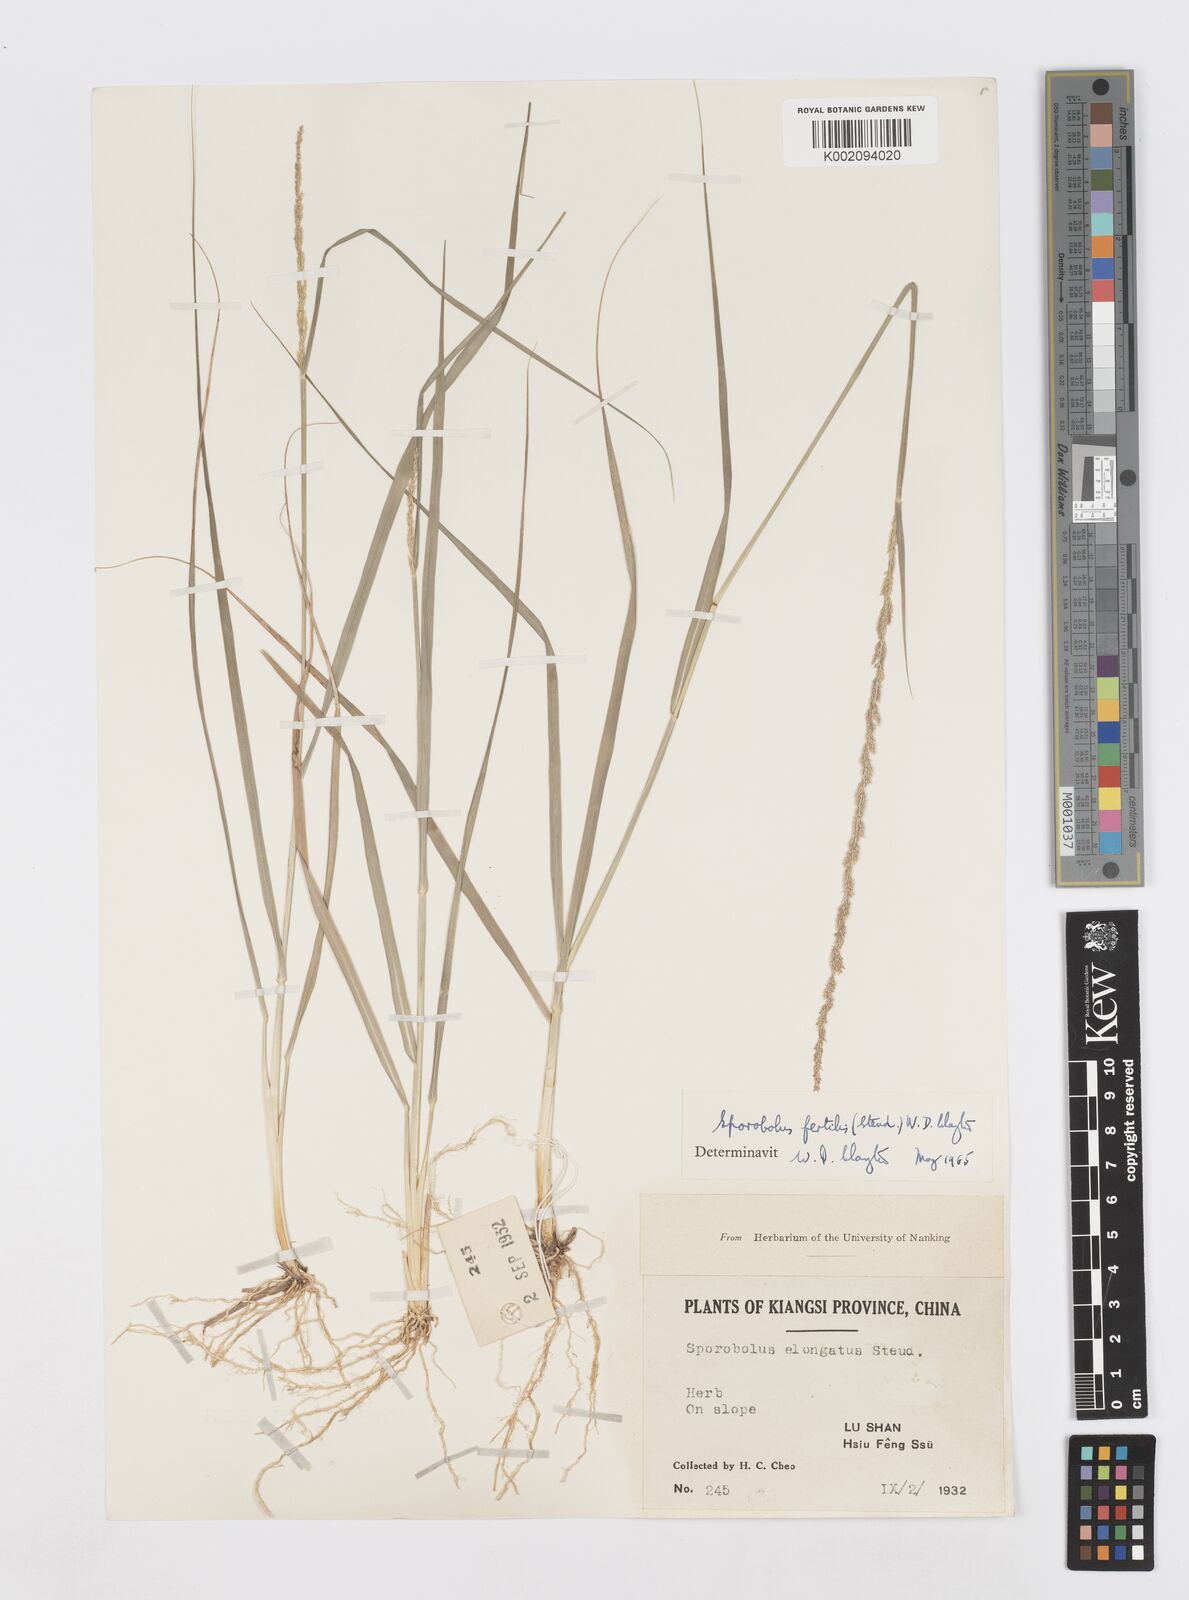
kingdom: Plantae
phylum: Tracheophyta
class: Liliopsida
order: Poales
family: Poaceae
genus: Sporobolus
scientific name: Sporobolus fertilis
